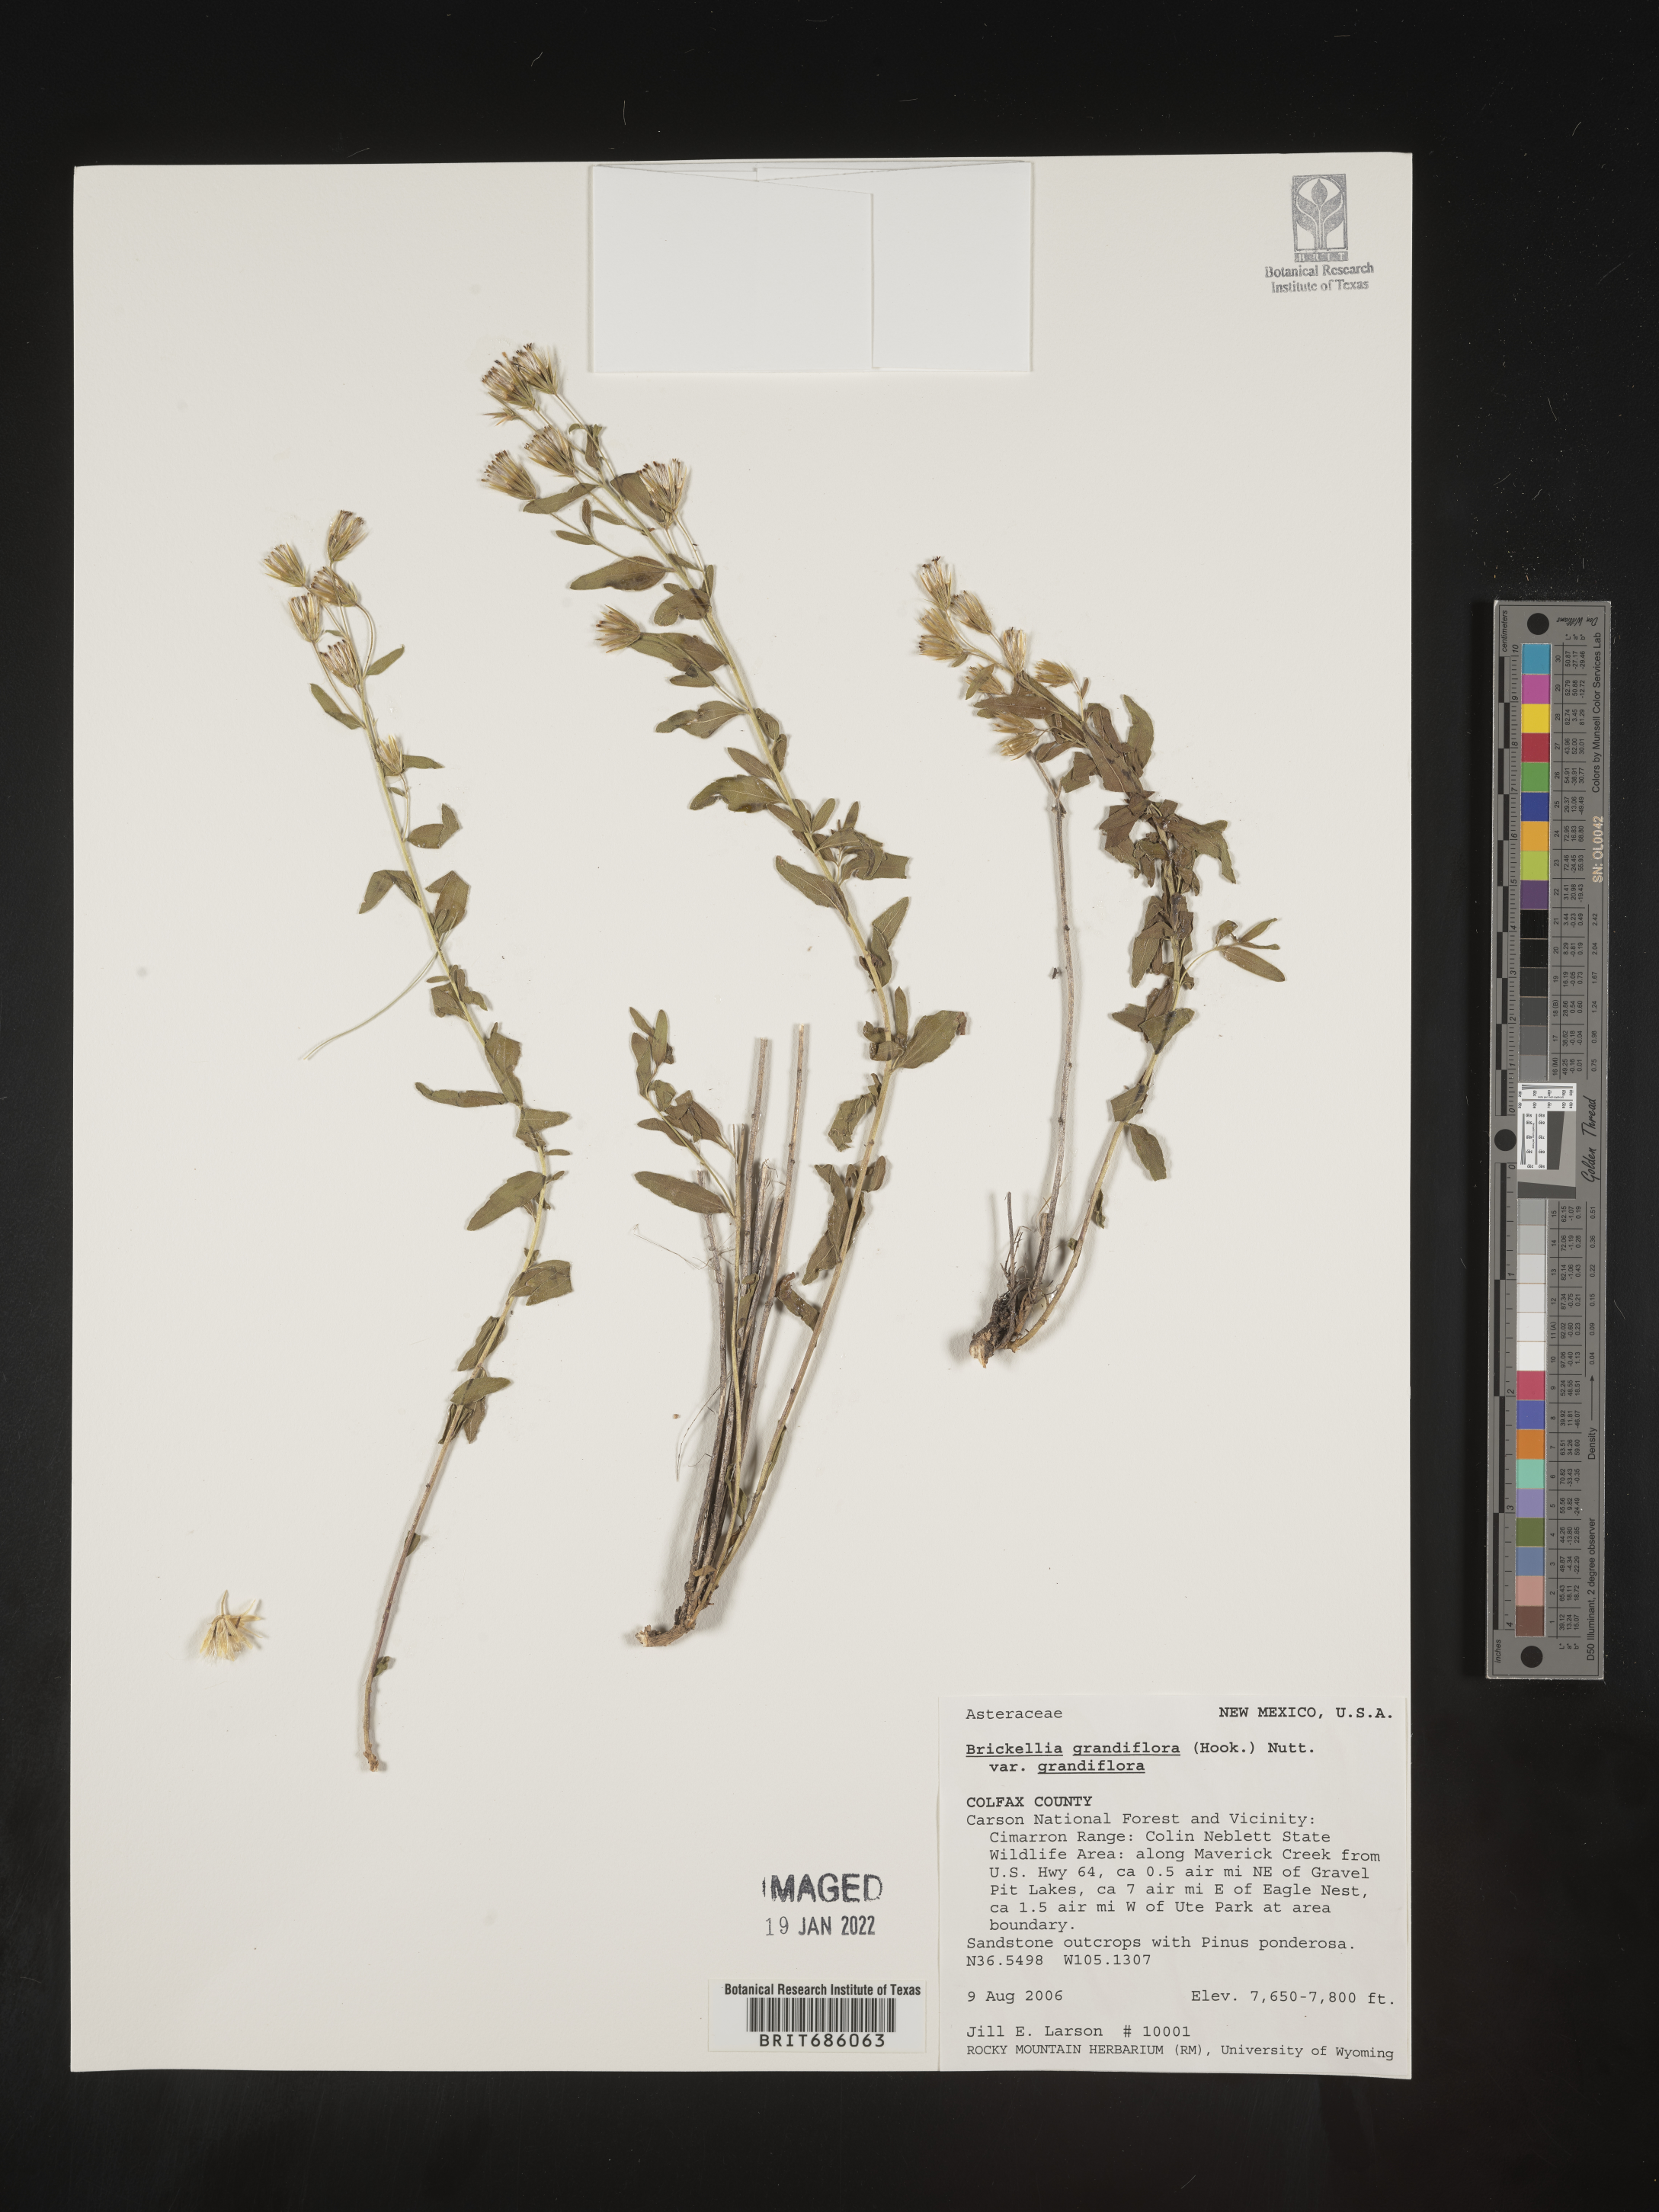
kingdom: Plantae
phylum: Tracheophyta
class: Magnoliopsida
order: Asterales
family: Asteraceae
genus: Brickellia
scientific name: Brickellia grandiflora
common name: Large-flowered brickellia
